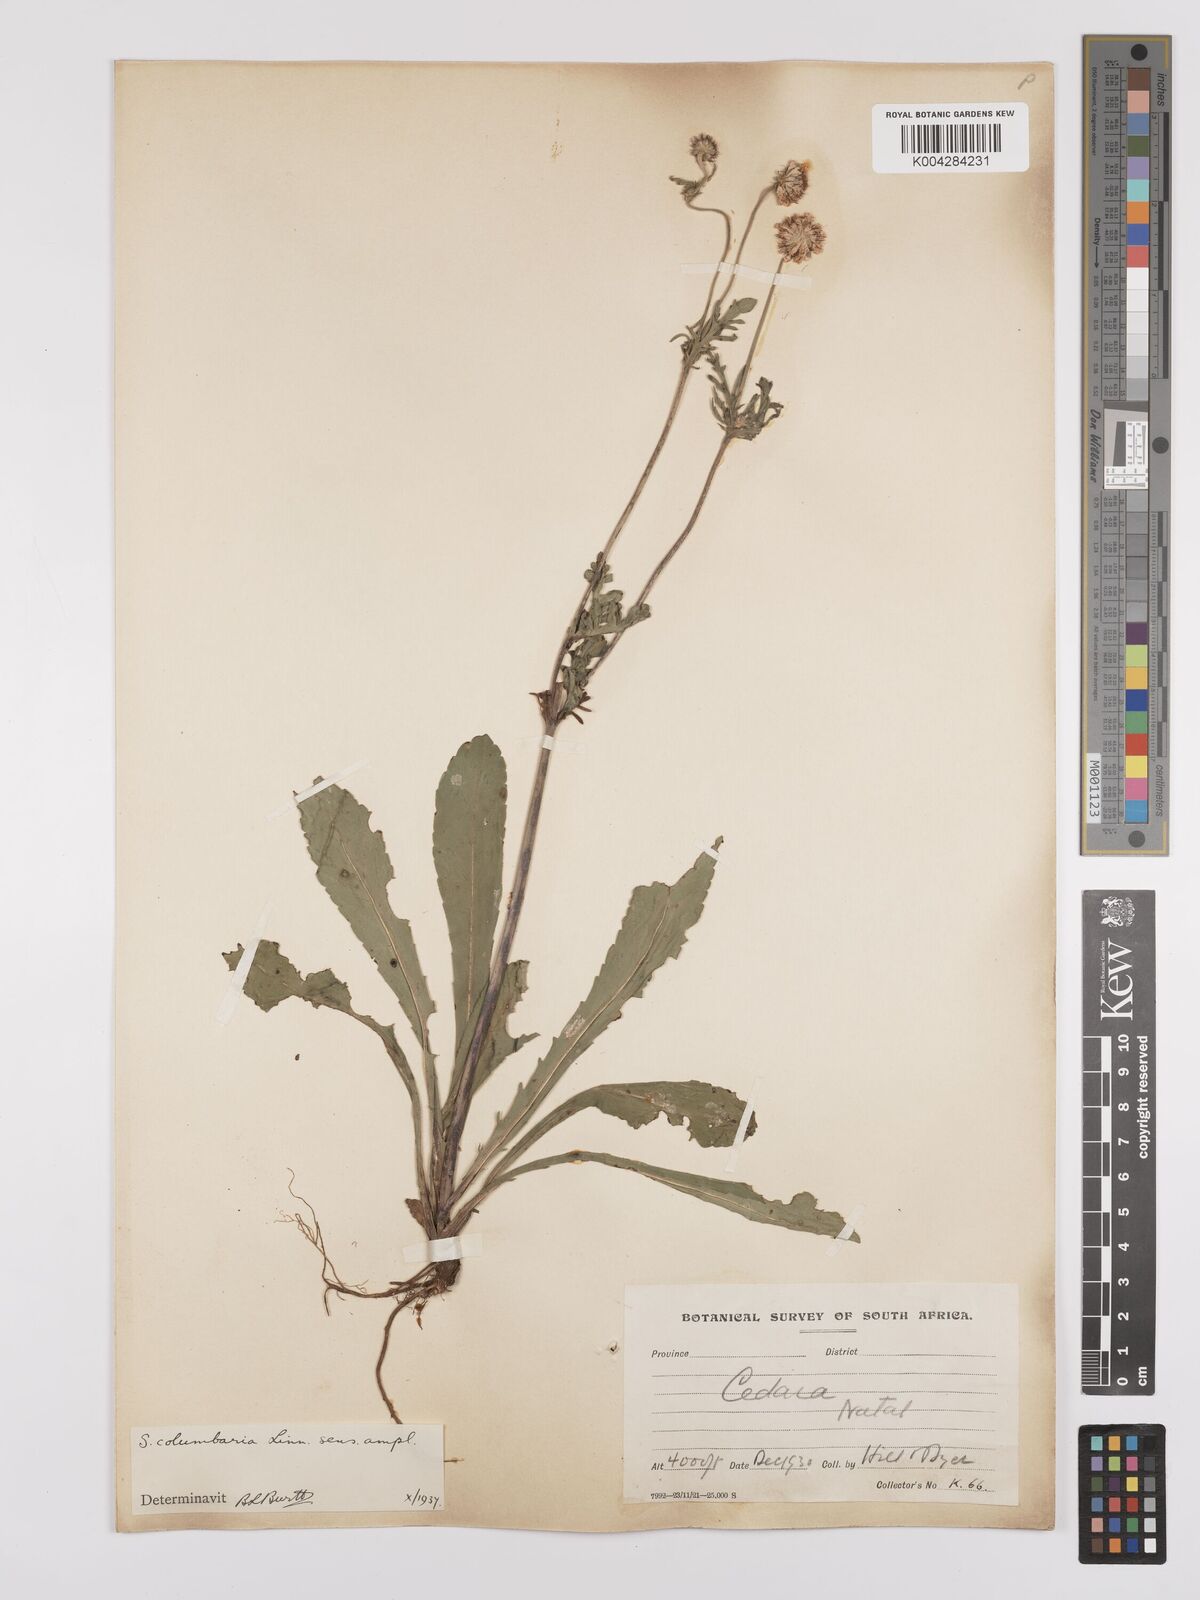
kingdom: Plantae
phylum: Tracheophyta
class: Magnoliopsida
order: Dipsacales
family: Caprifoliaceae
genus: Scabiosa
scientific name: Scabiosa columbaria
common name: Small scabious
